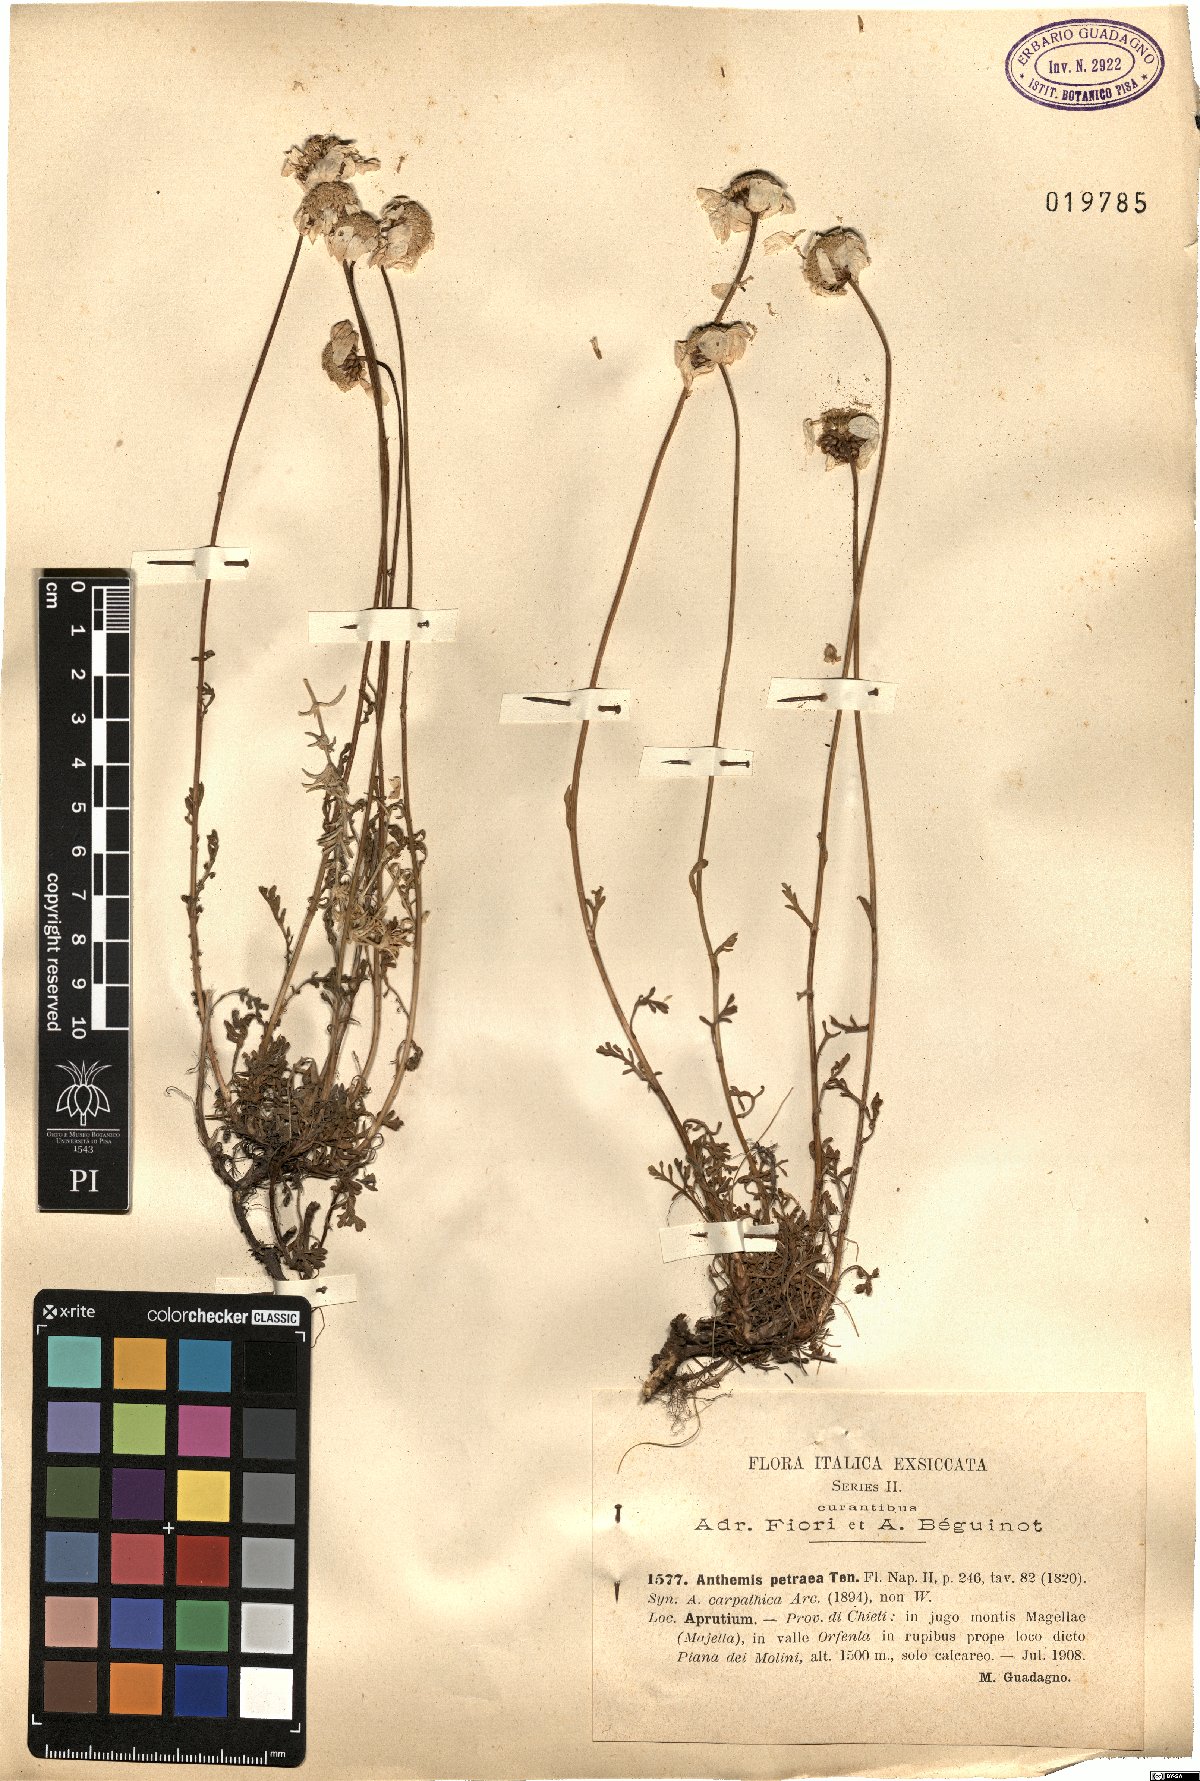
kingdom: Plantae
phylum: Tracheophyta
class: Magnoliopsida
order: Asterales
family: Asteraceae
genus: Anthemis
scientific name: Anthemis cretica
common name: Mountain dog-daisy
